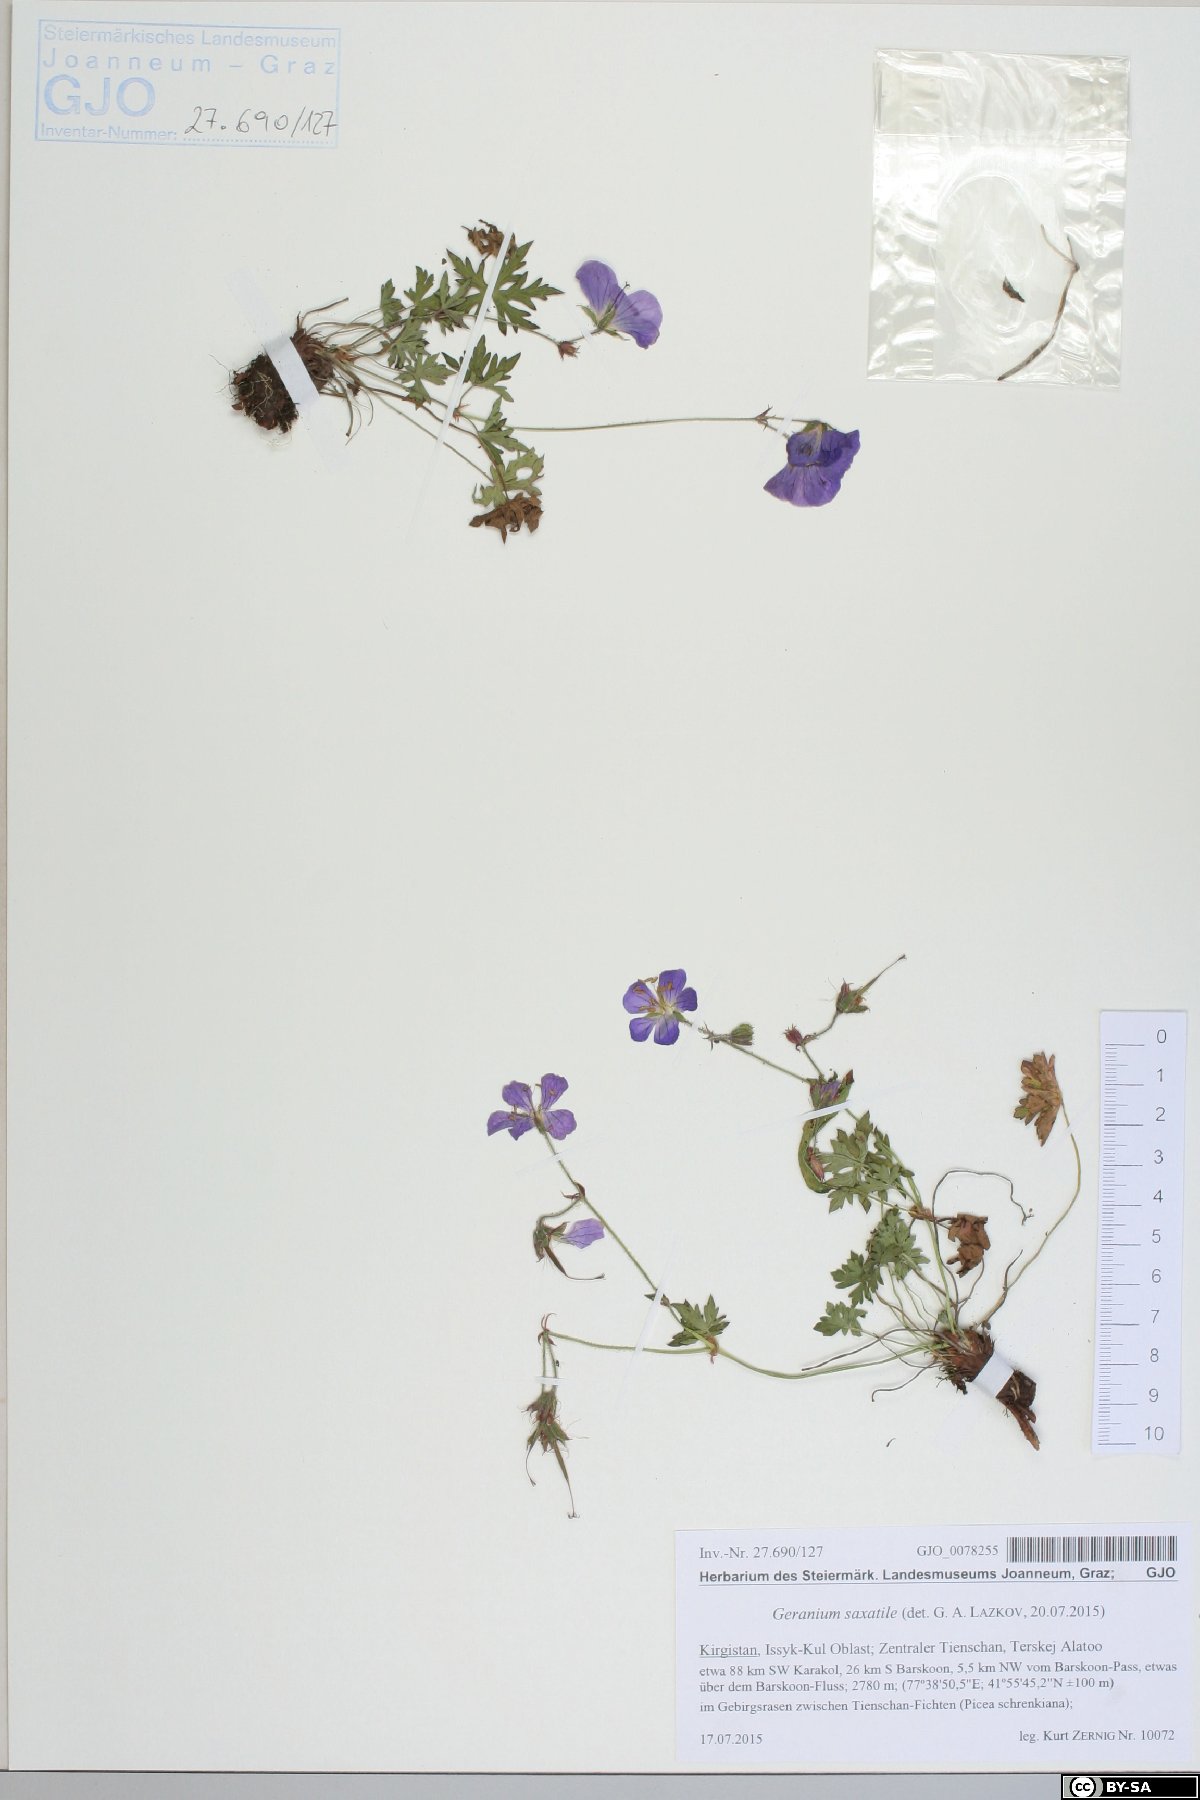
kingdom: Plantae
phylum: Tracheophyta
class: Magnoliopsida
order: Geraniales
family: Geraniaceae
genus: Geranium
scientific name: Geranium saxatile
